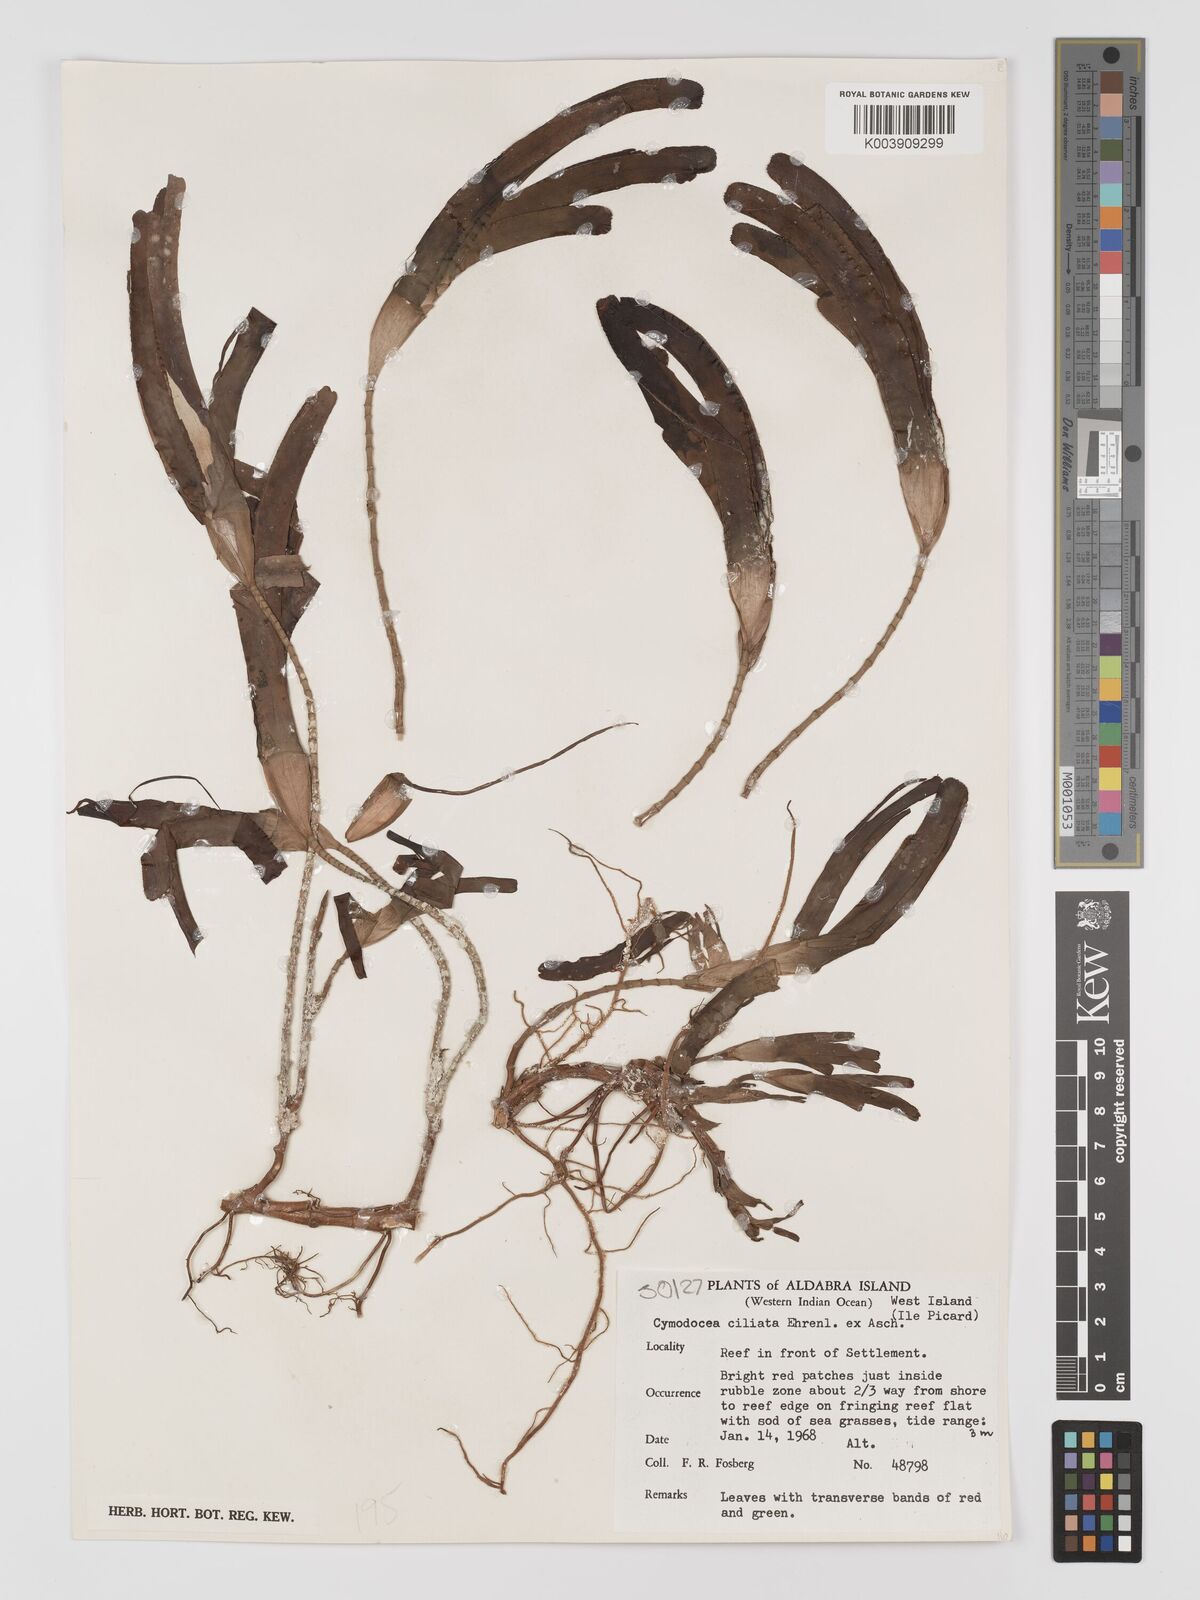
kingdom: Plantae
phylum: Tracheophyta
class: Liliopsida
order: Alismatales
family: Cymodoceaceae
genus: Thalassodendron
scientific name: Thalassodendron ciliatum
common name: Species code: tc
